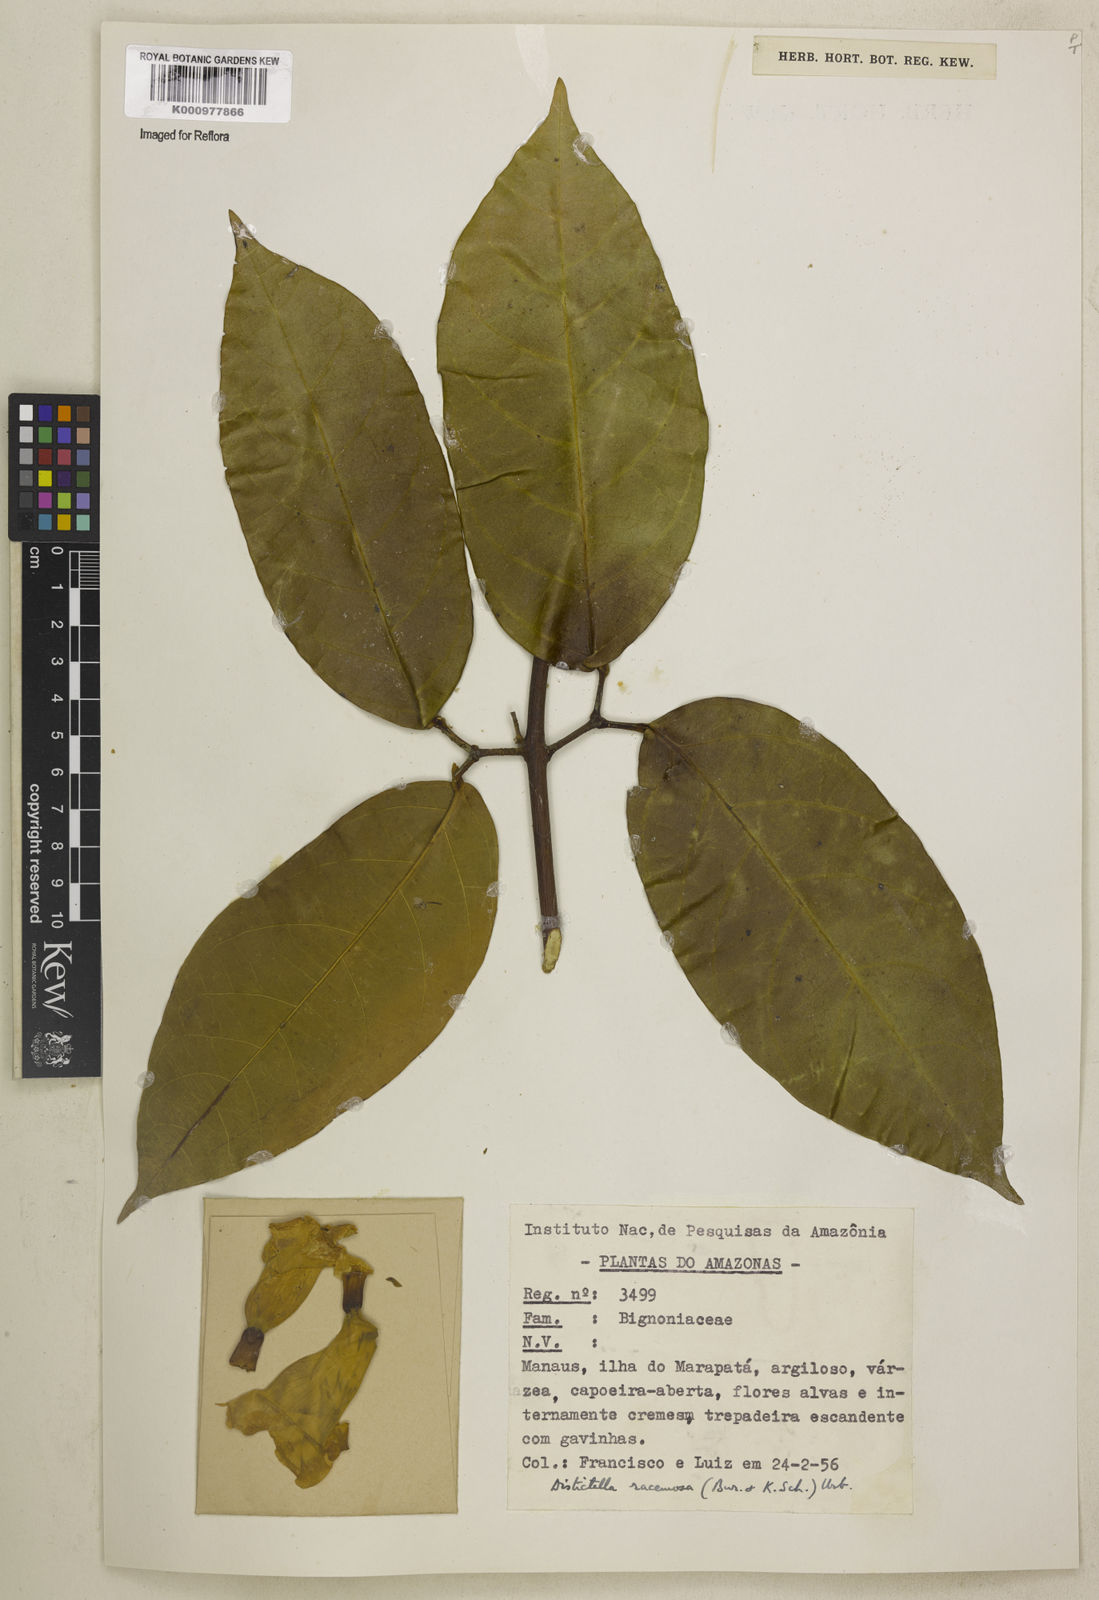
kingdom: Plantae
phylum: Tracheophyta
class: Magnoliopsida
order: Lamiales
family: Bignoniaceae
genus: Amphilophium
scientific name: Amphilophium racemosum
